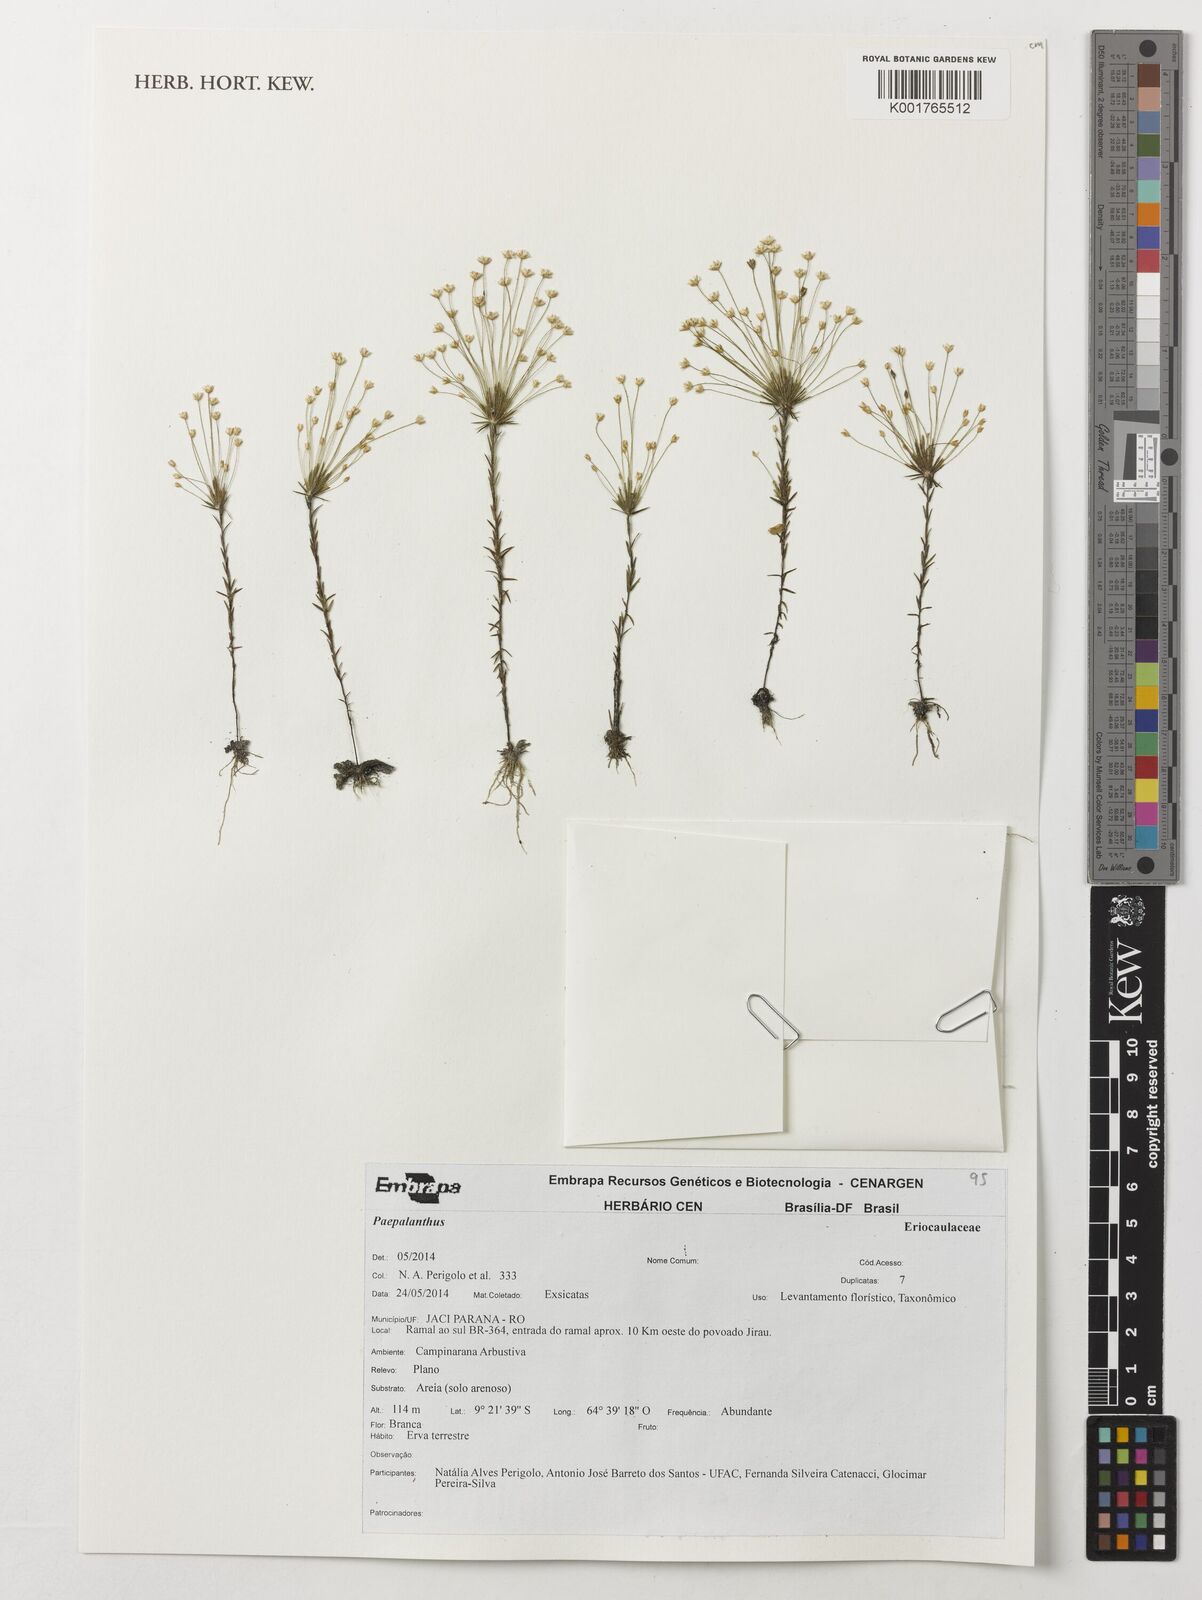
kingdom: Plantae
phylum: Tracheophyta
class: Liliopsida
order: Poales
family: Eriocaulaceae
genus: Paepalanthus
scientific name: Paepalanthus
